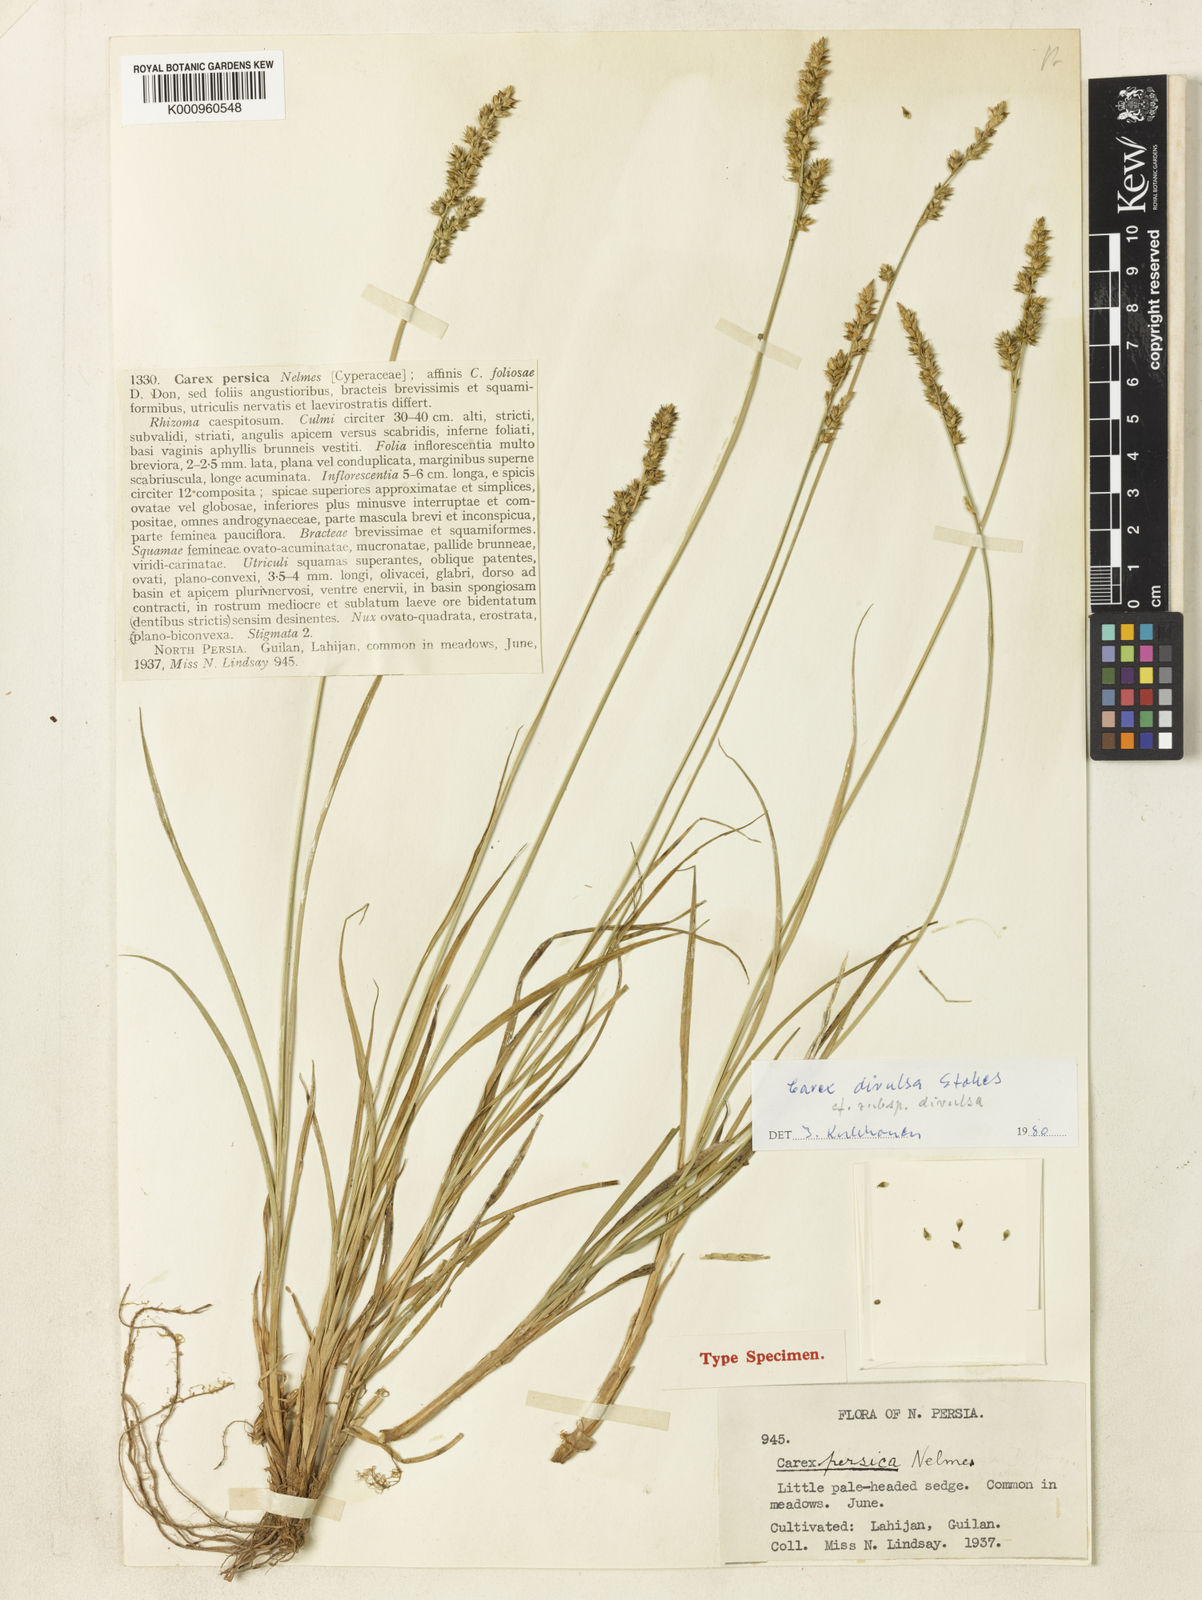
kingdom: Plantae
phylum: Tracheophyta
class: Liliopsida
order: Poales
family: Cyperaceae
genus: Carex
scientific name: Carex divulsa
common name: Grassland sedge
